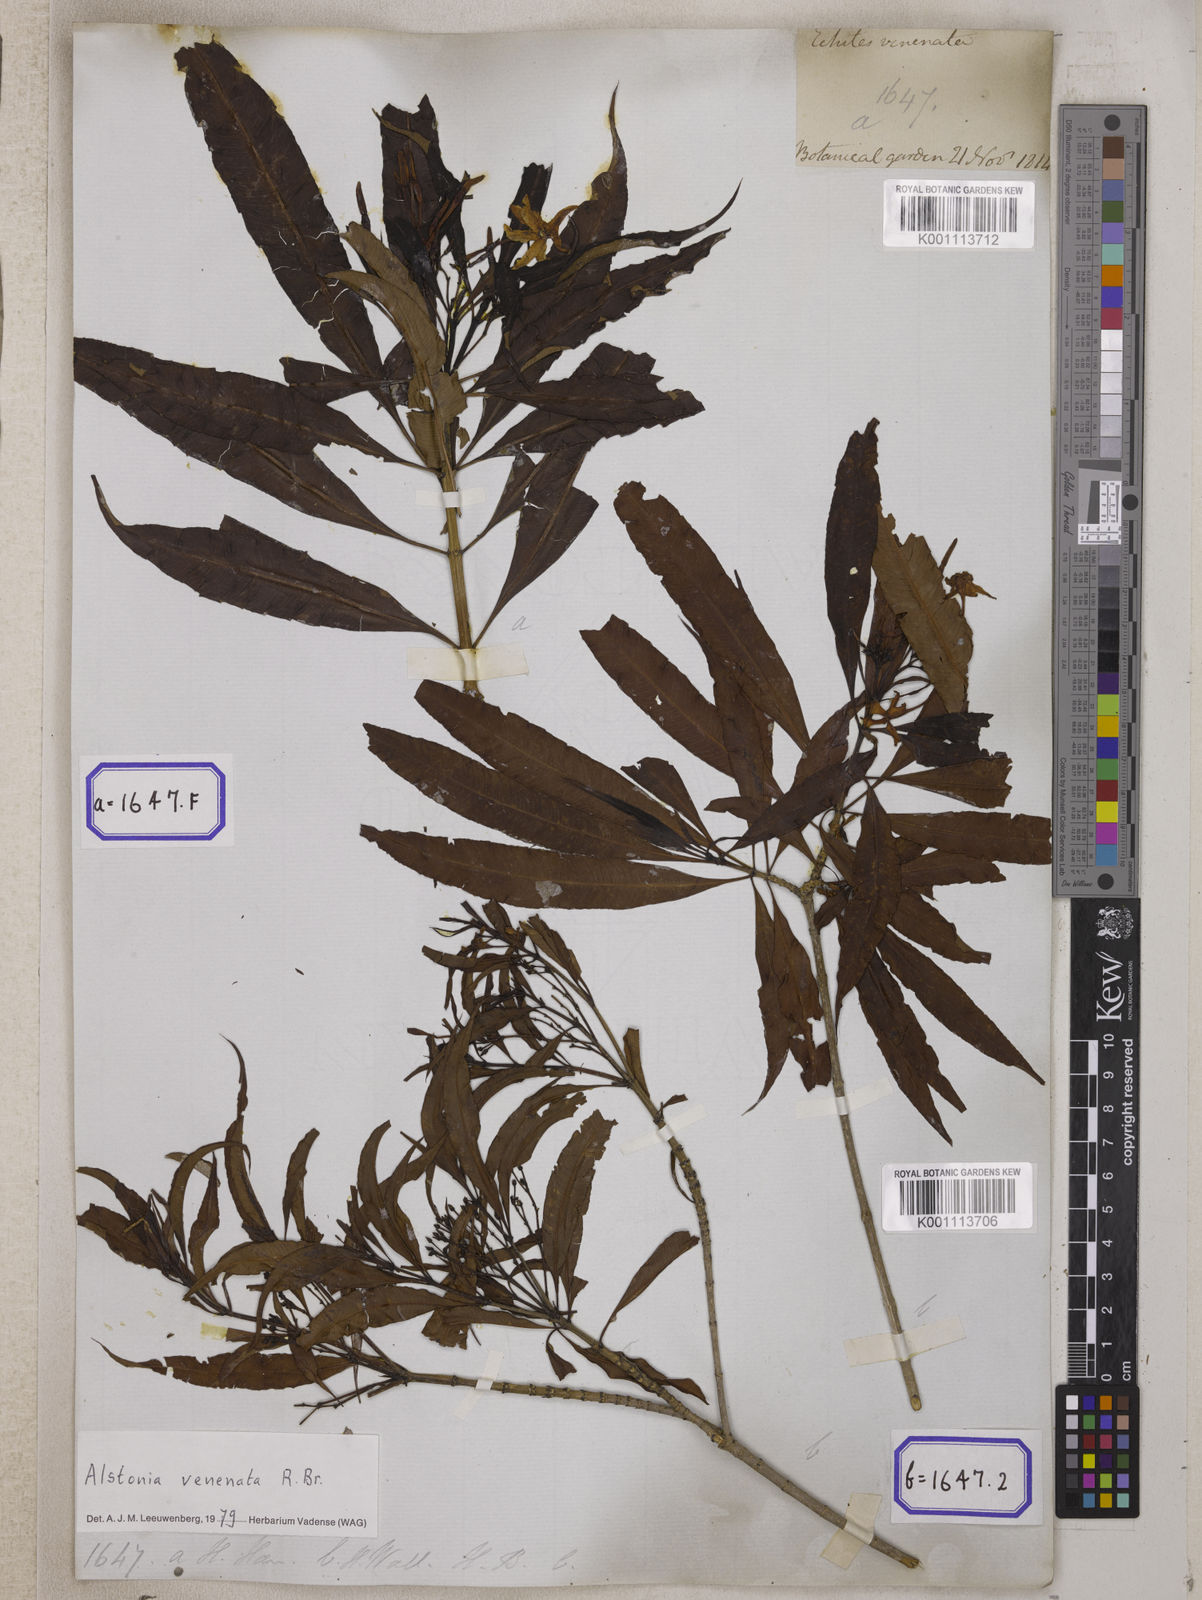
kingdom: Plantae
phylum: Tracheophyta
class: Magnoliopsida
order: Gentianales
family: Apocynaceae
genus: Alstonia
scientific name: Alstonia venenata
